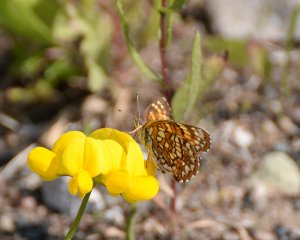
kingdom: Animalia
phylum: Arthropoda
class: Insecta
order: Lepidoptera
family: Nymphalidae
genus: Chlosyne
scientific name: Chlosyne harrisii
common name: Harris's Checkerspot
